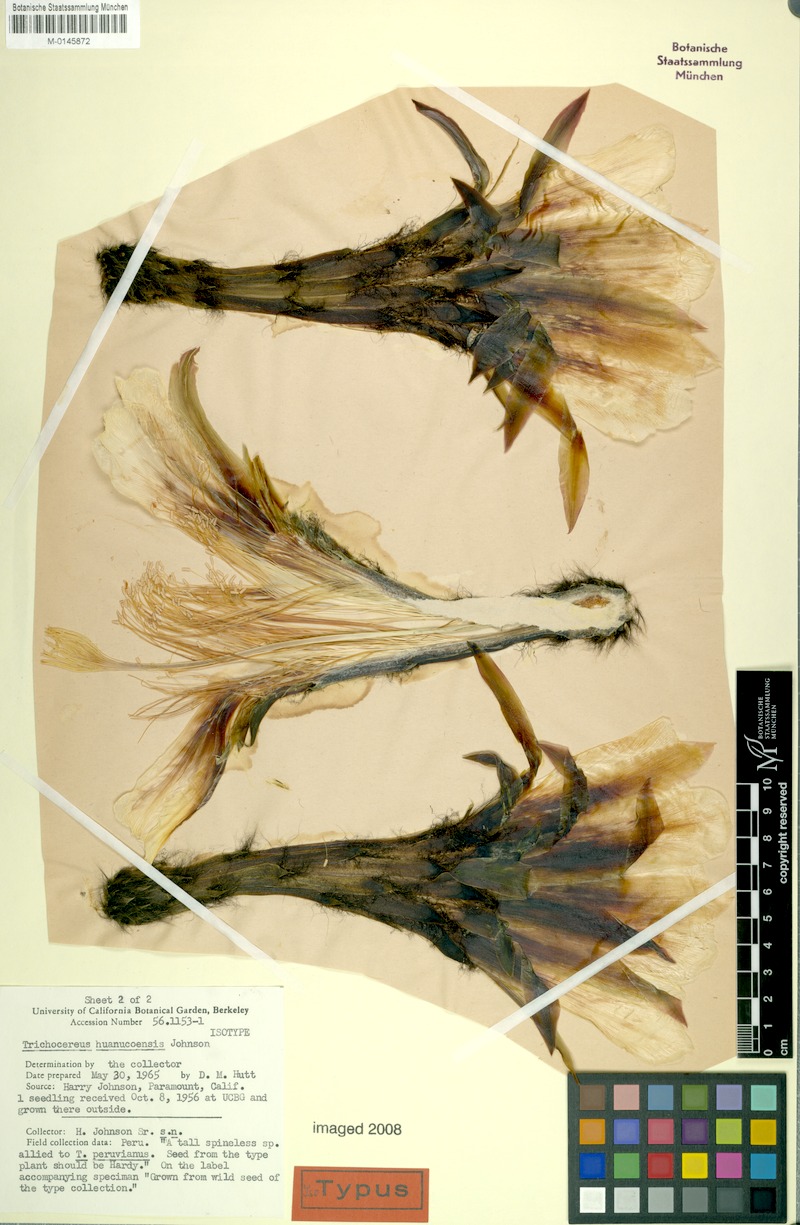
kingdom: Plantae
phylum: Tracheophyta
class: Magnoliopsida
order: Caryophyllales
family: Cactaceae
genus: Trichocereus
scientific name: Trichocereus huanucoensis
